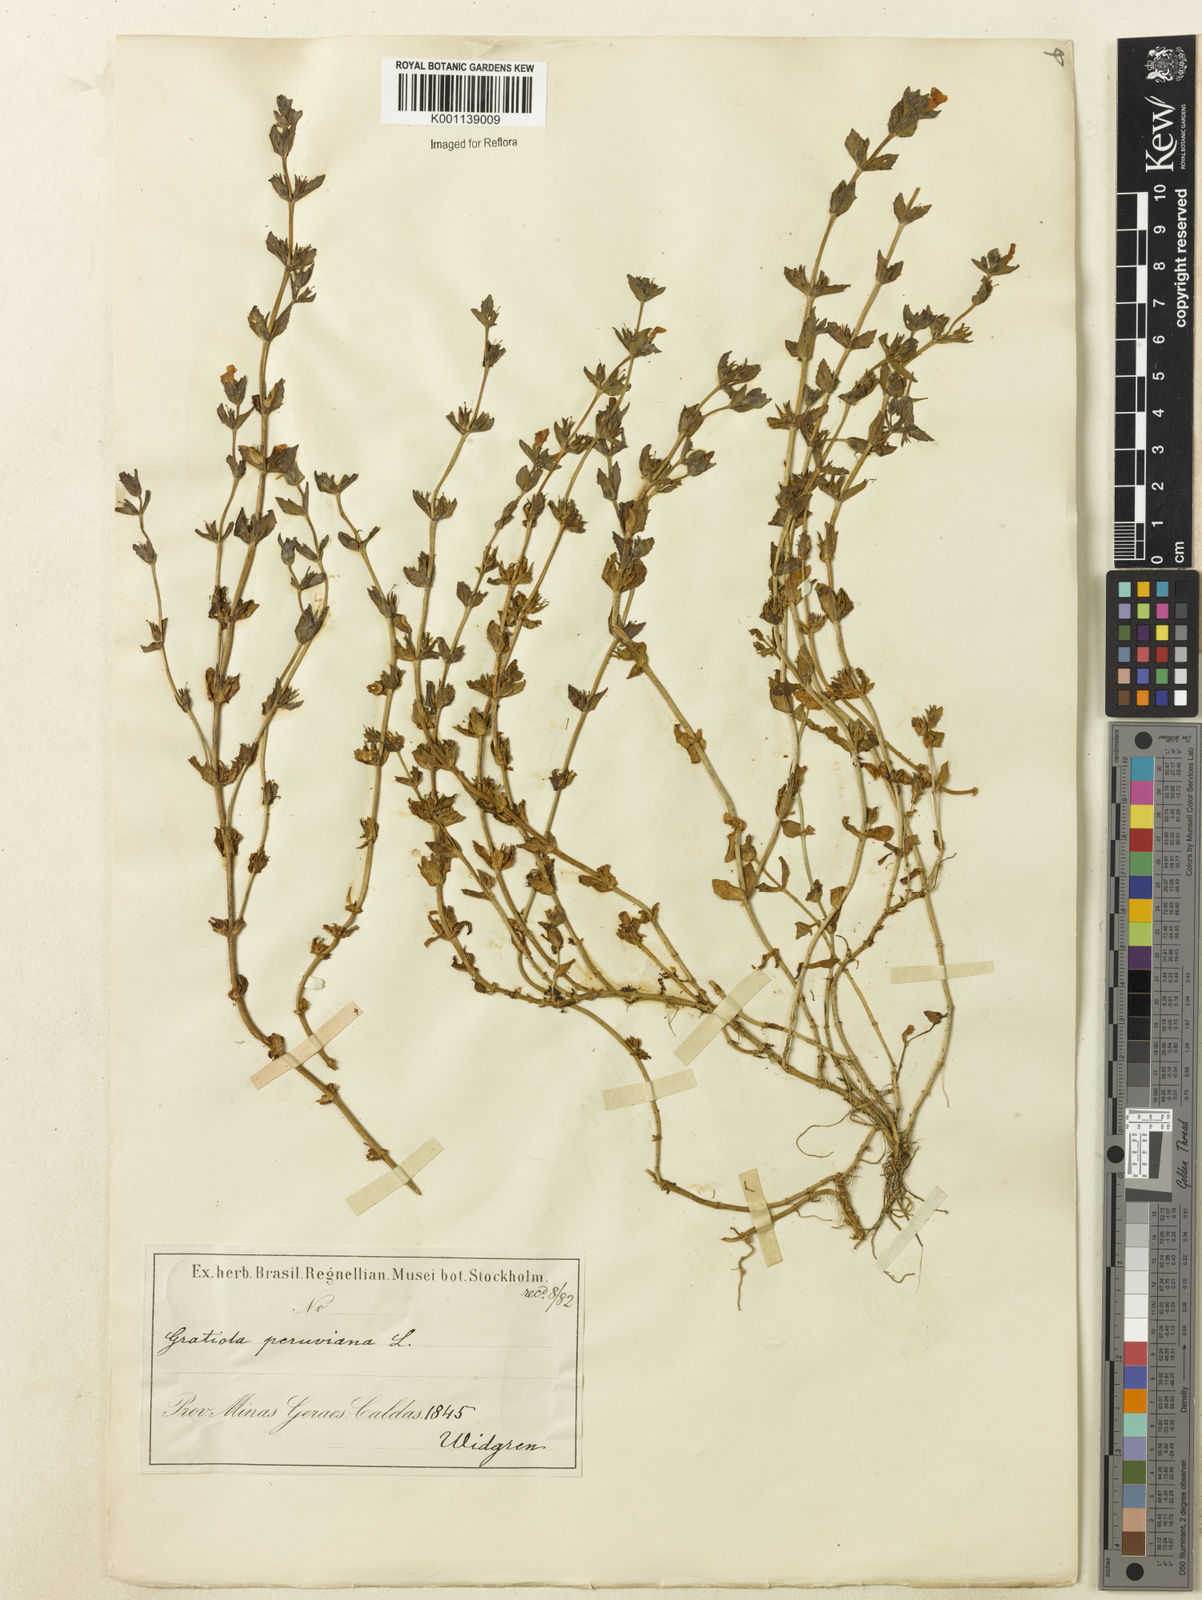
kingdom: Plantae
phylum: Tracheophyta
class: Magnoliopsida
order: Lamiales
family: Plantaginaceae
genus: Gratiola
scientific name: Gratiola peruviana
